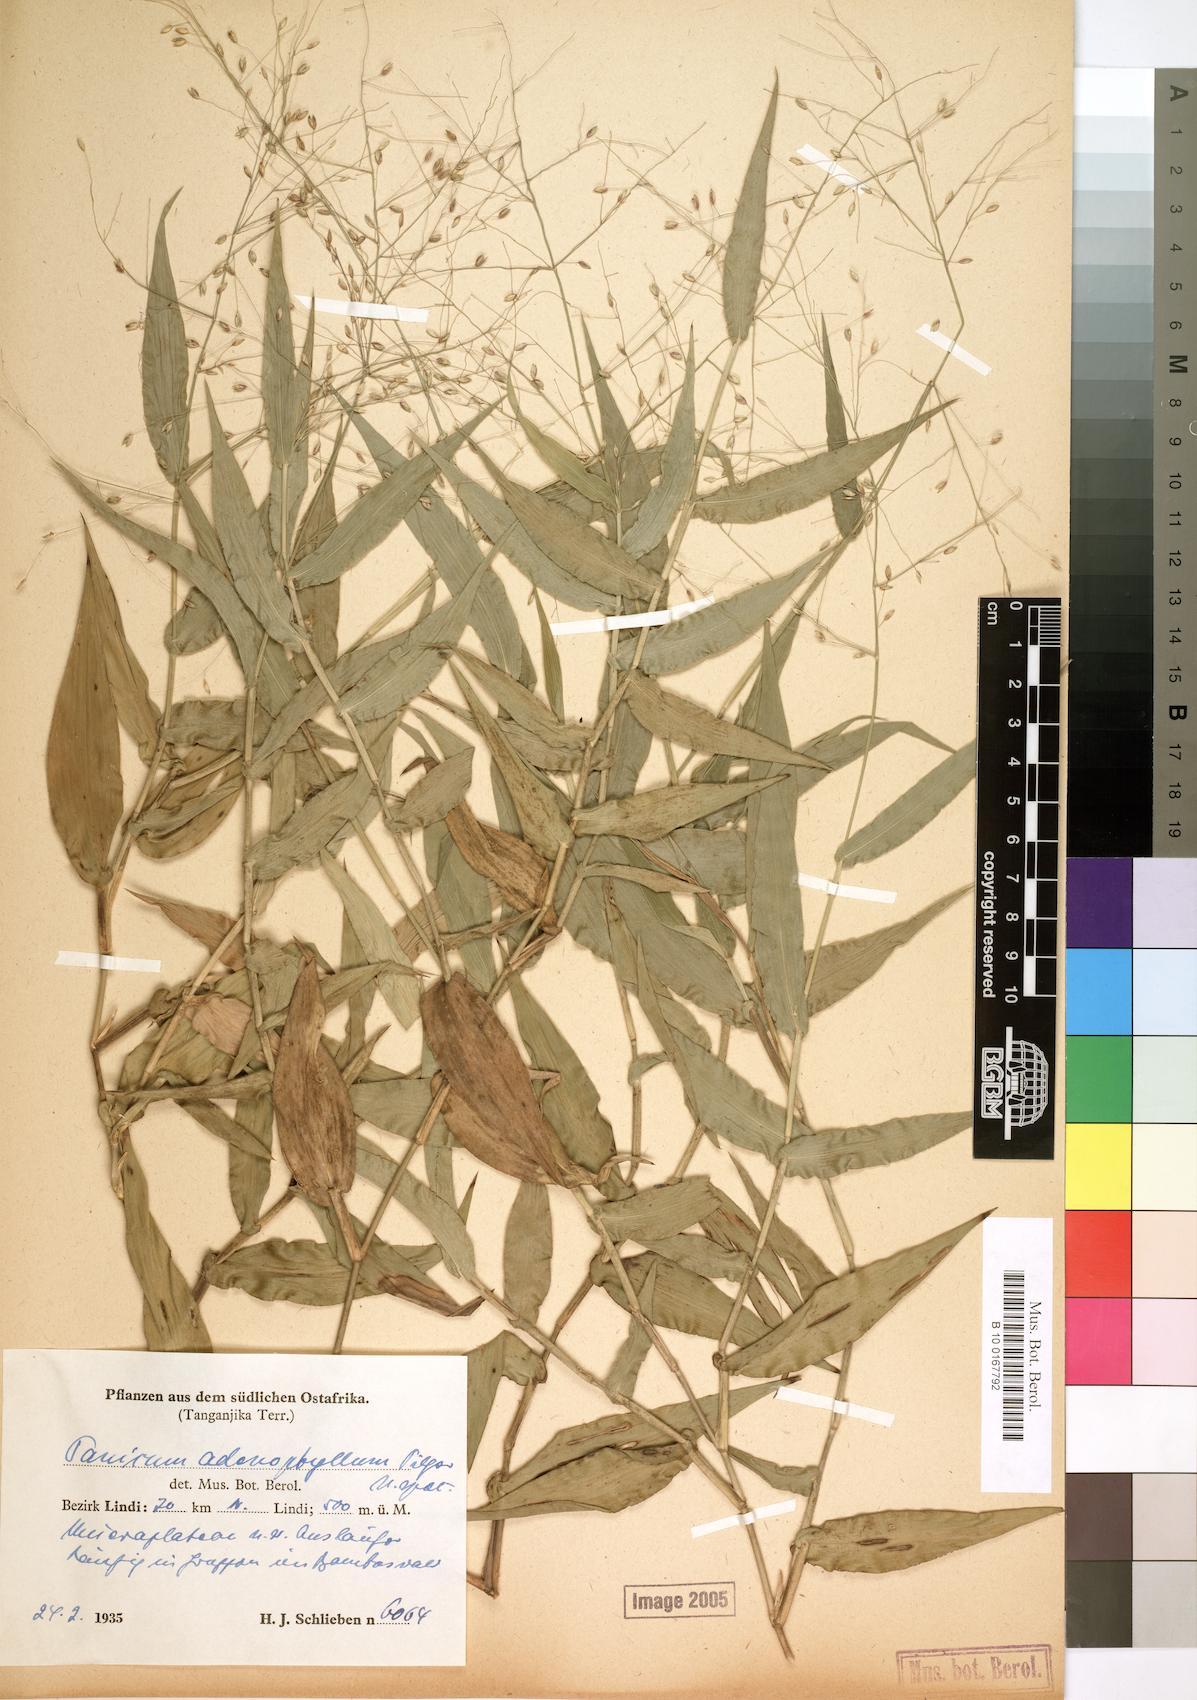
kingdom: Plantae
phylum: Tracheophyta
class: Liliopsida
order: Poales
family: Poaceae
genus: Adenochloa
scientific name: Adenochloa adenophora
